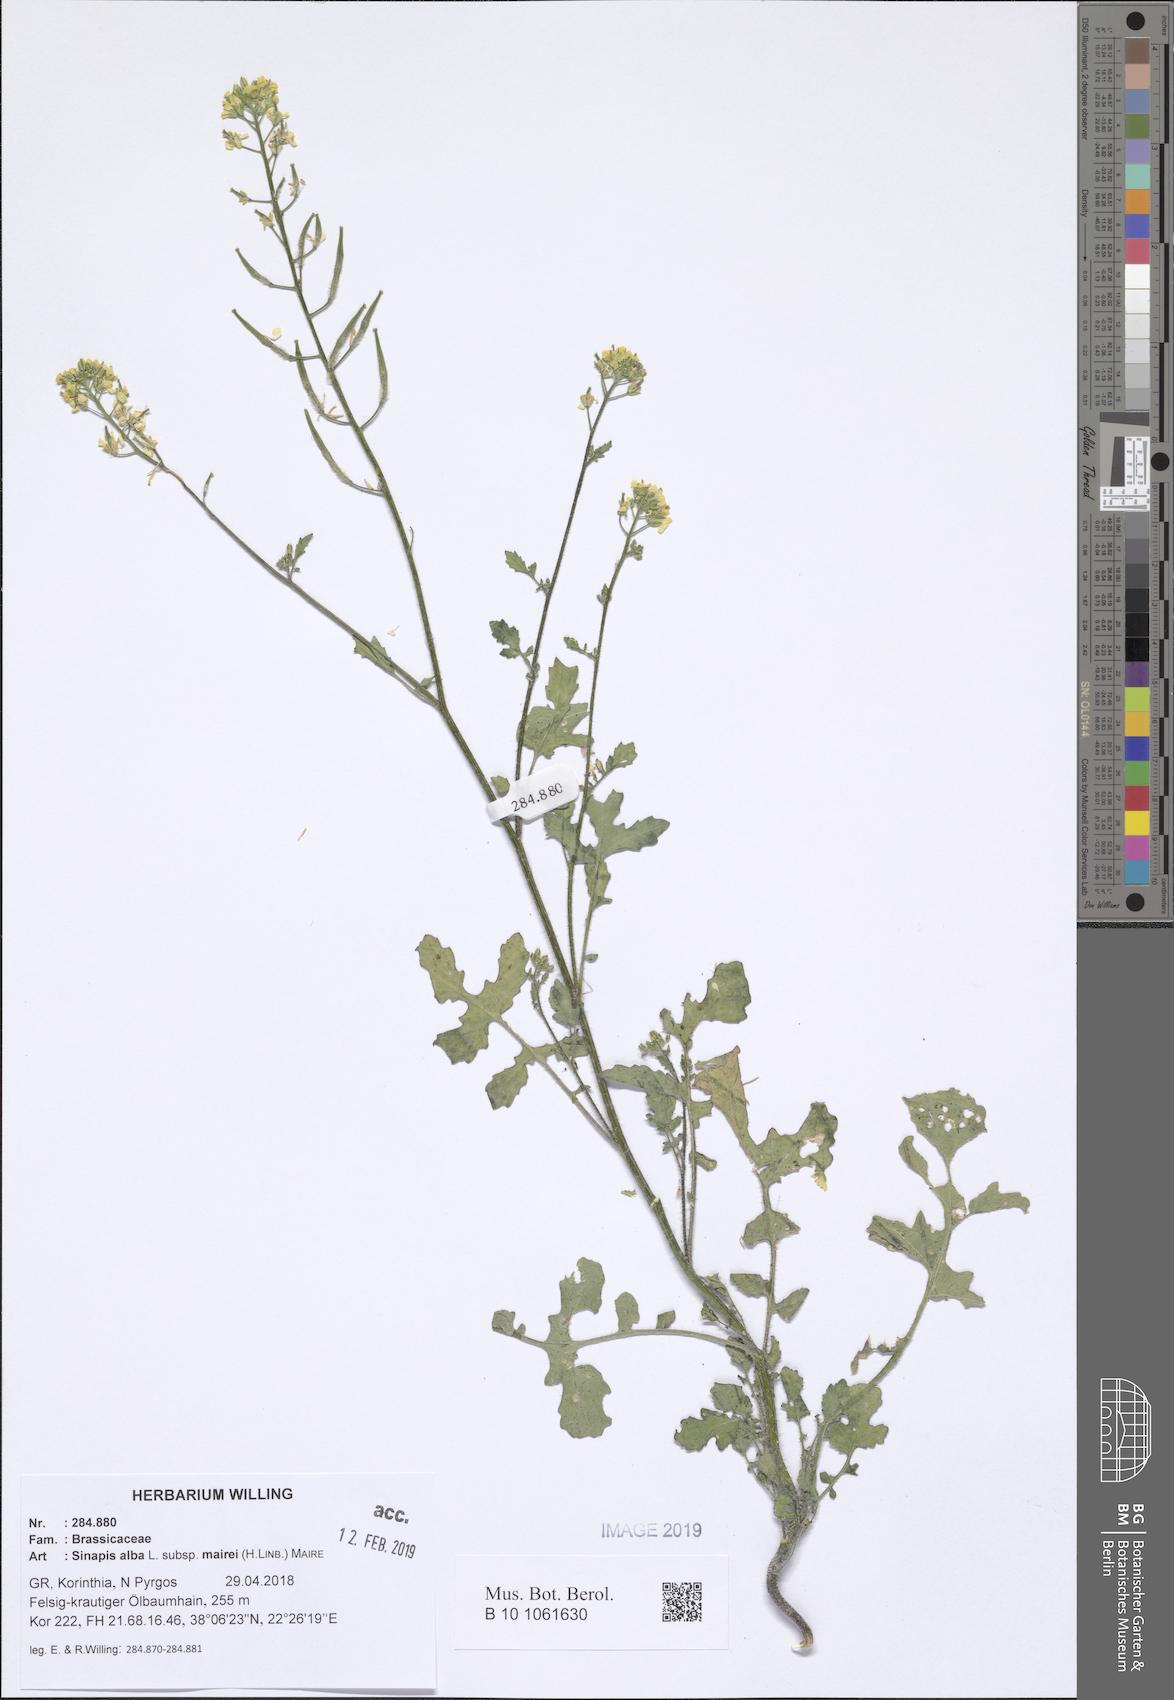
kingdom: Plantae
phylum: Tracheophyta
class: Magnoliopsida
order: Brassicales
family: Brassicaceae
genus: Sinapis
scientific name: Sinapis alba
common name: White mustard
